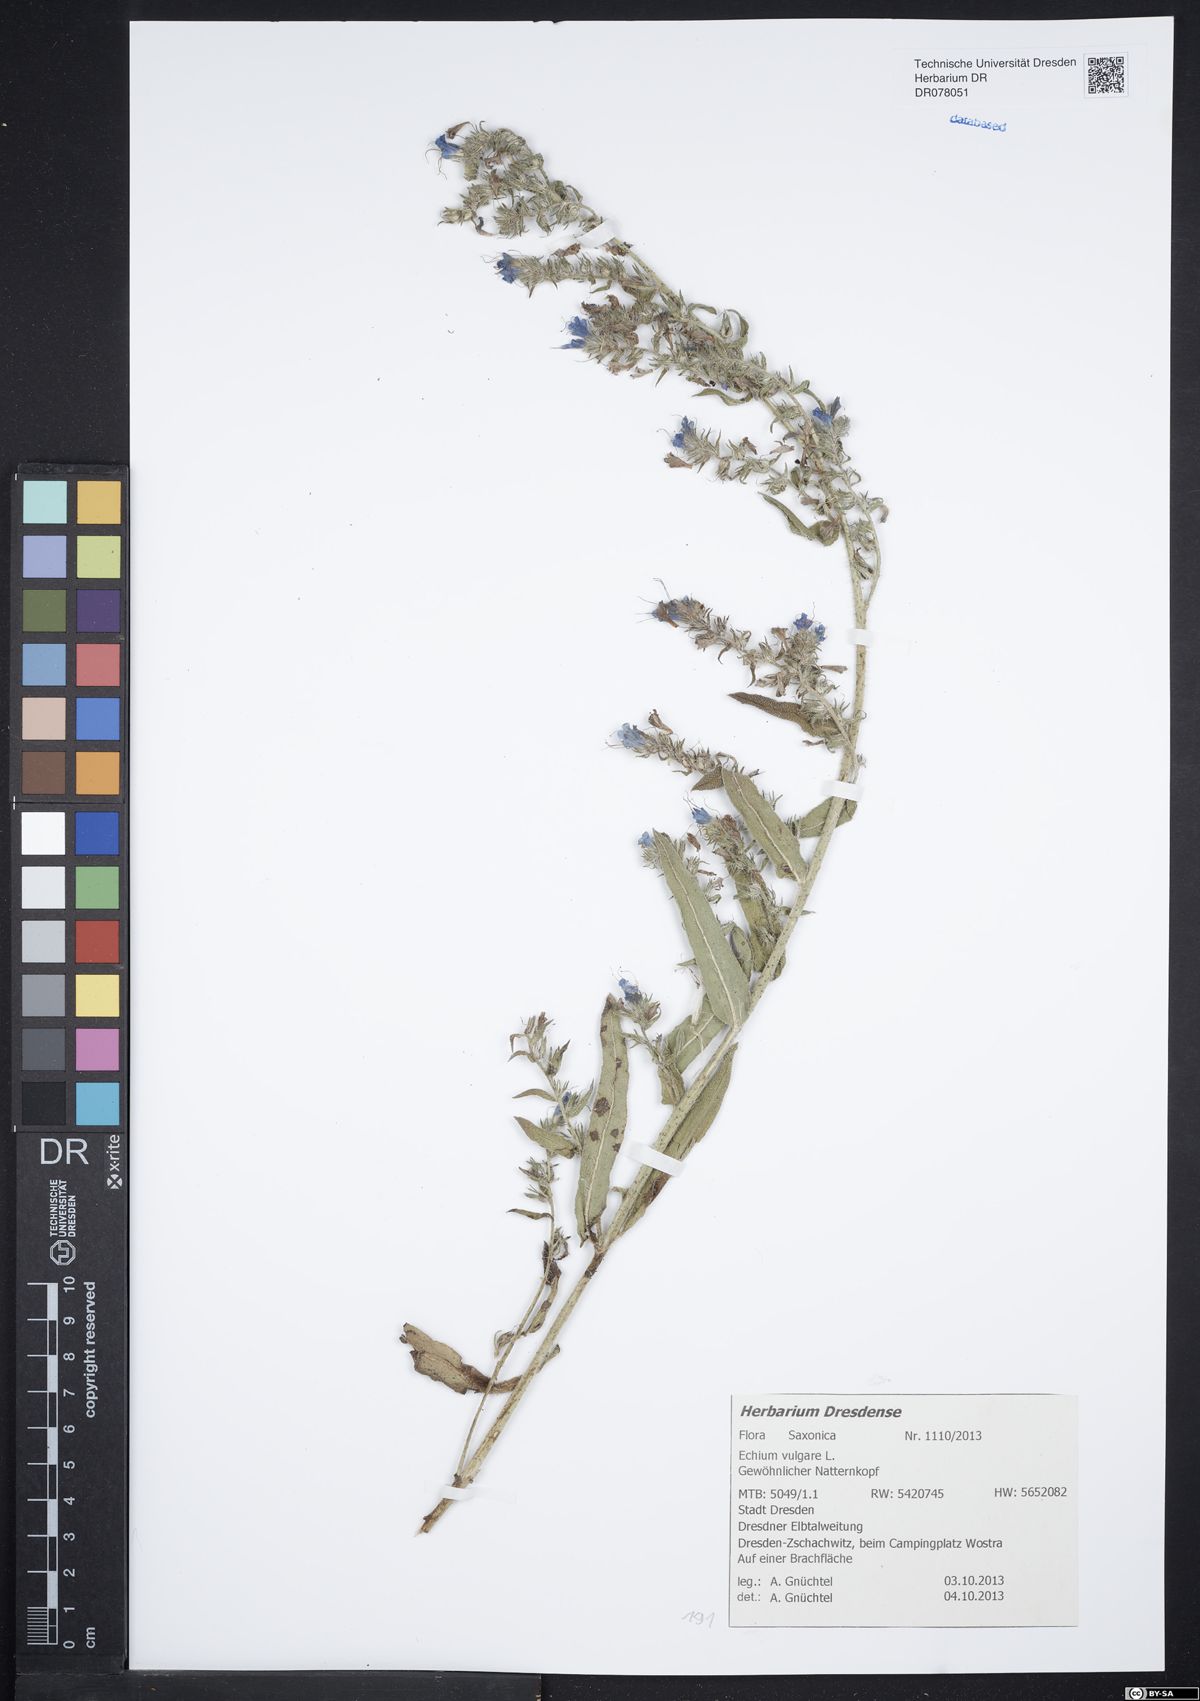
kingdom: Plantae
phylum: Tracheophyta
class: Magnoliopsida
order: Boraginales
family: Boraginaceae
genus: Echium
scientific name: Echium vulgare
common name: Common viper's bugloss
